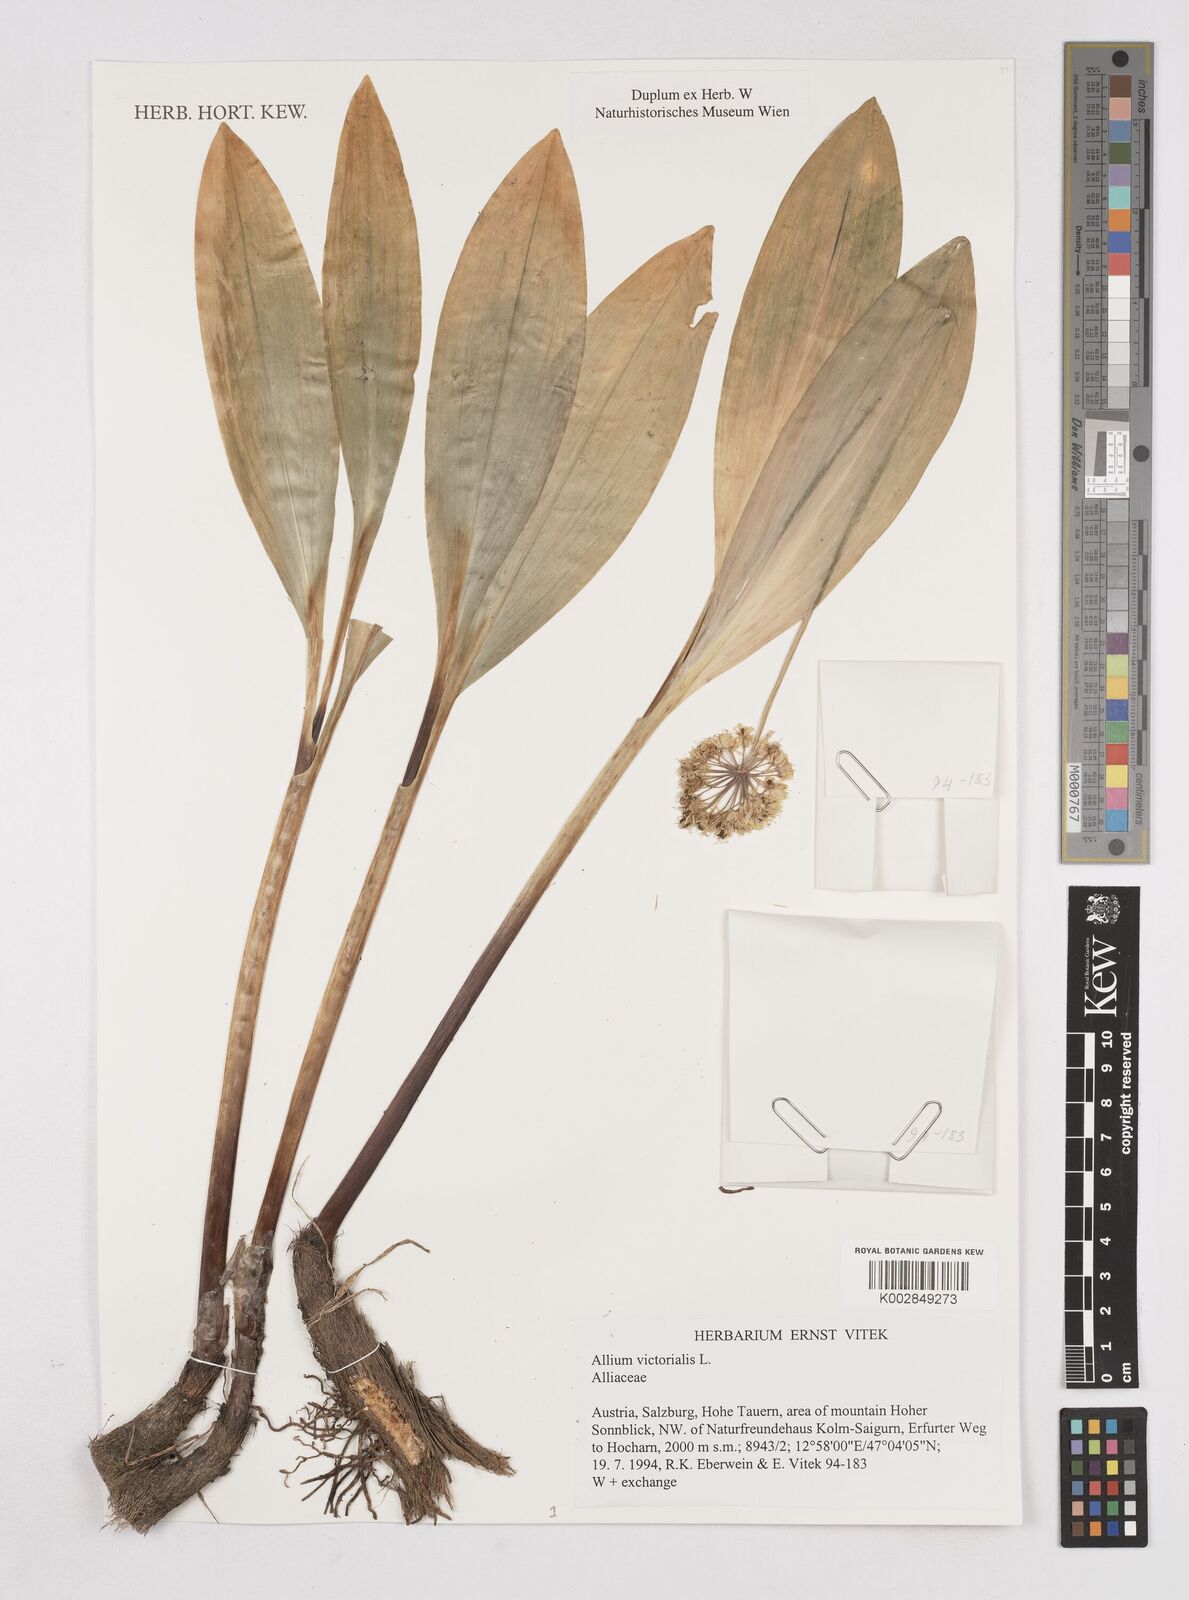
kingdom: Plantae
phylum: Tracheophyta
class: Liliopsida
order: Asparagales
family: Amaryllidaceae
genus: Allium
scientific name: Allium victorialis
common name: Alpine leek
